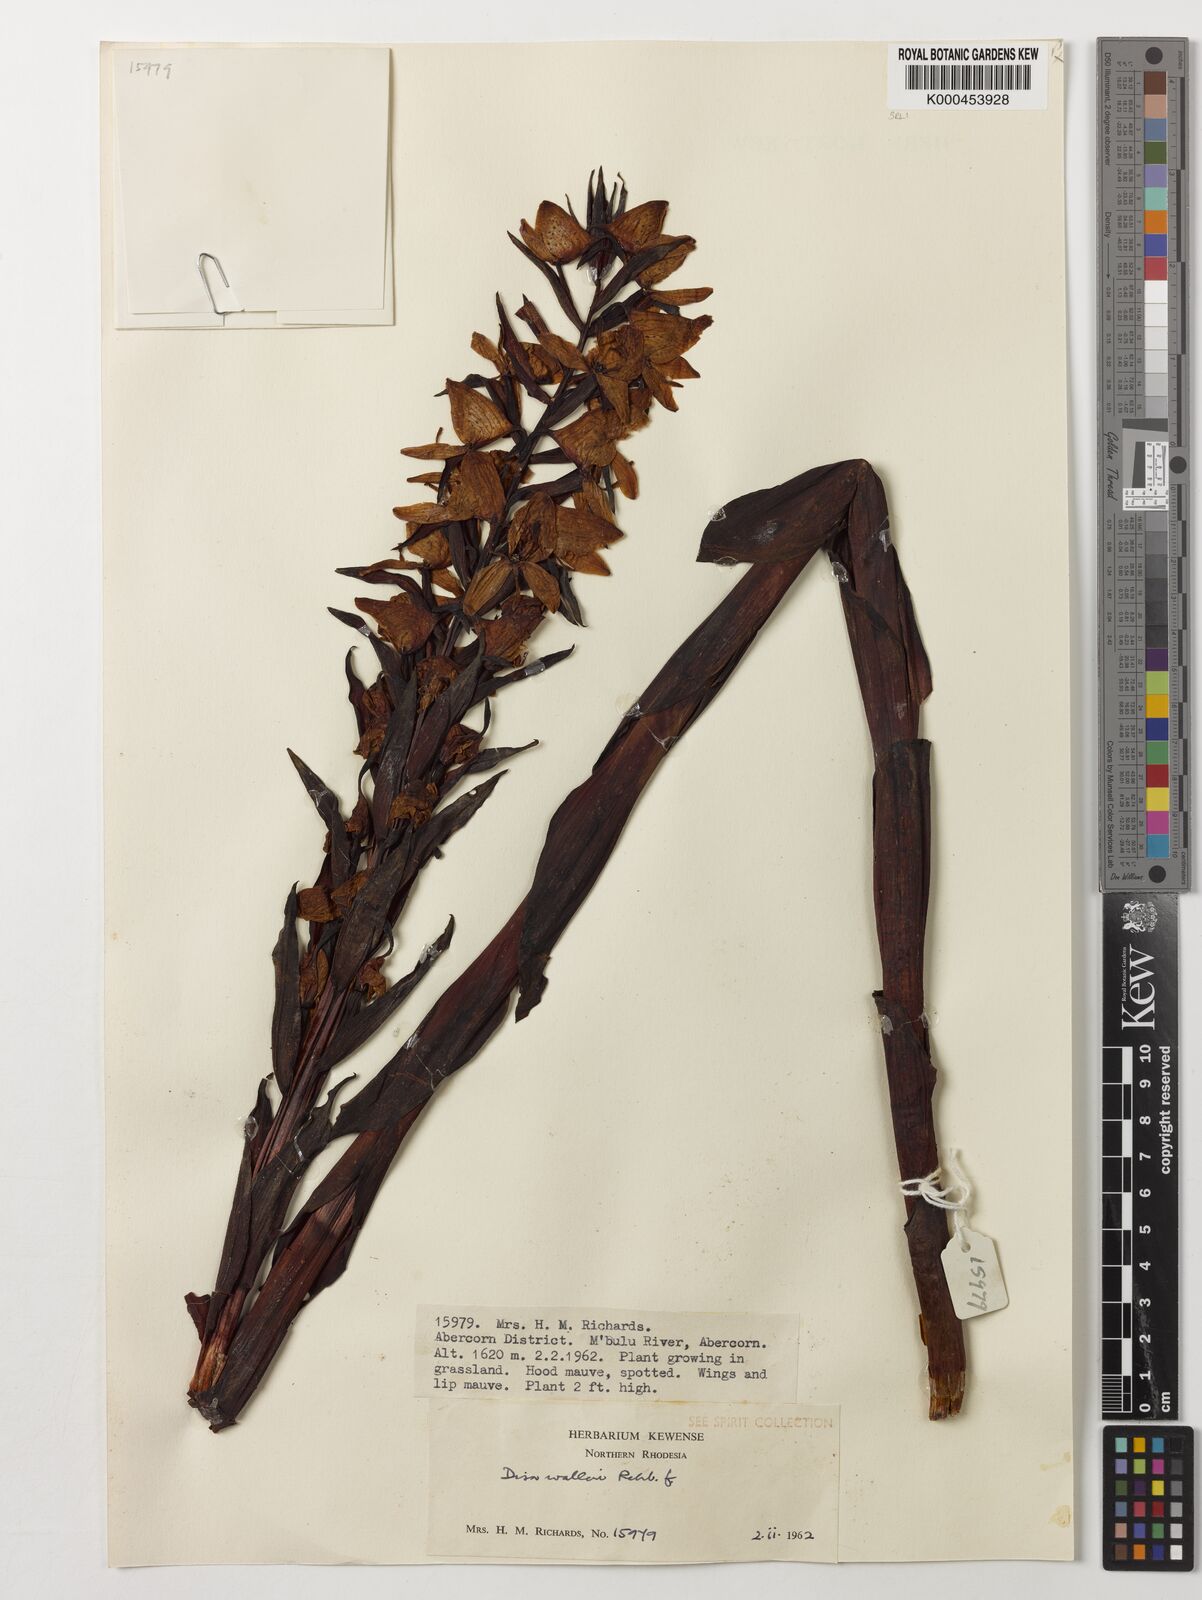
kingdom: Plantae
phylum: Tracheophyta
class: Liliopsida
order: Asparagales
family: Orchidaceae
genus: Disa
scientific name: Disa walleri
